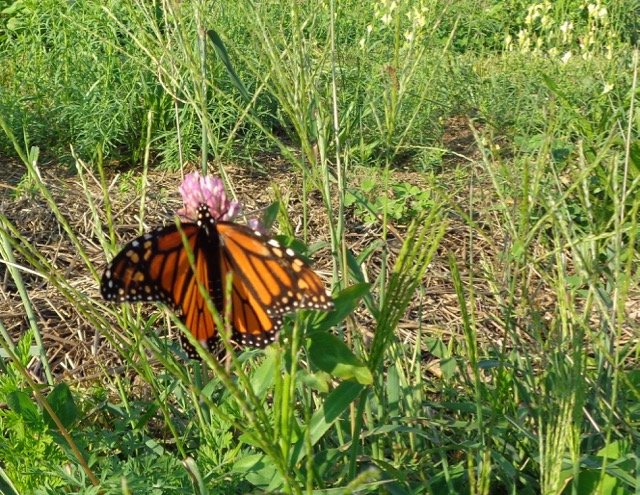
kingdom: Animalia
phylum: Arthropoda
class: Insecta
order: Lepidoptera
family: Nymphalidae
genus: Danaus
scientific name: Danaus plexippus
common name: Monarch
